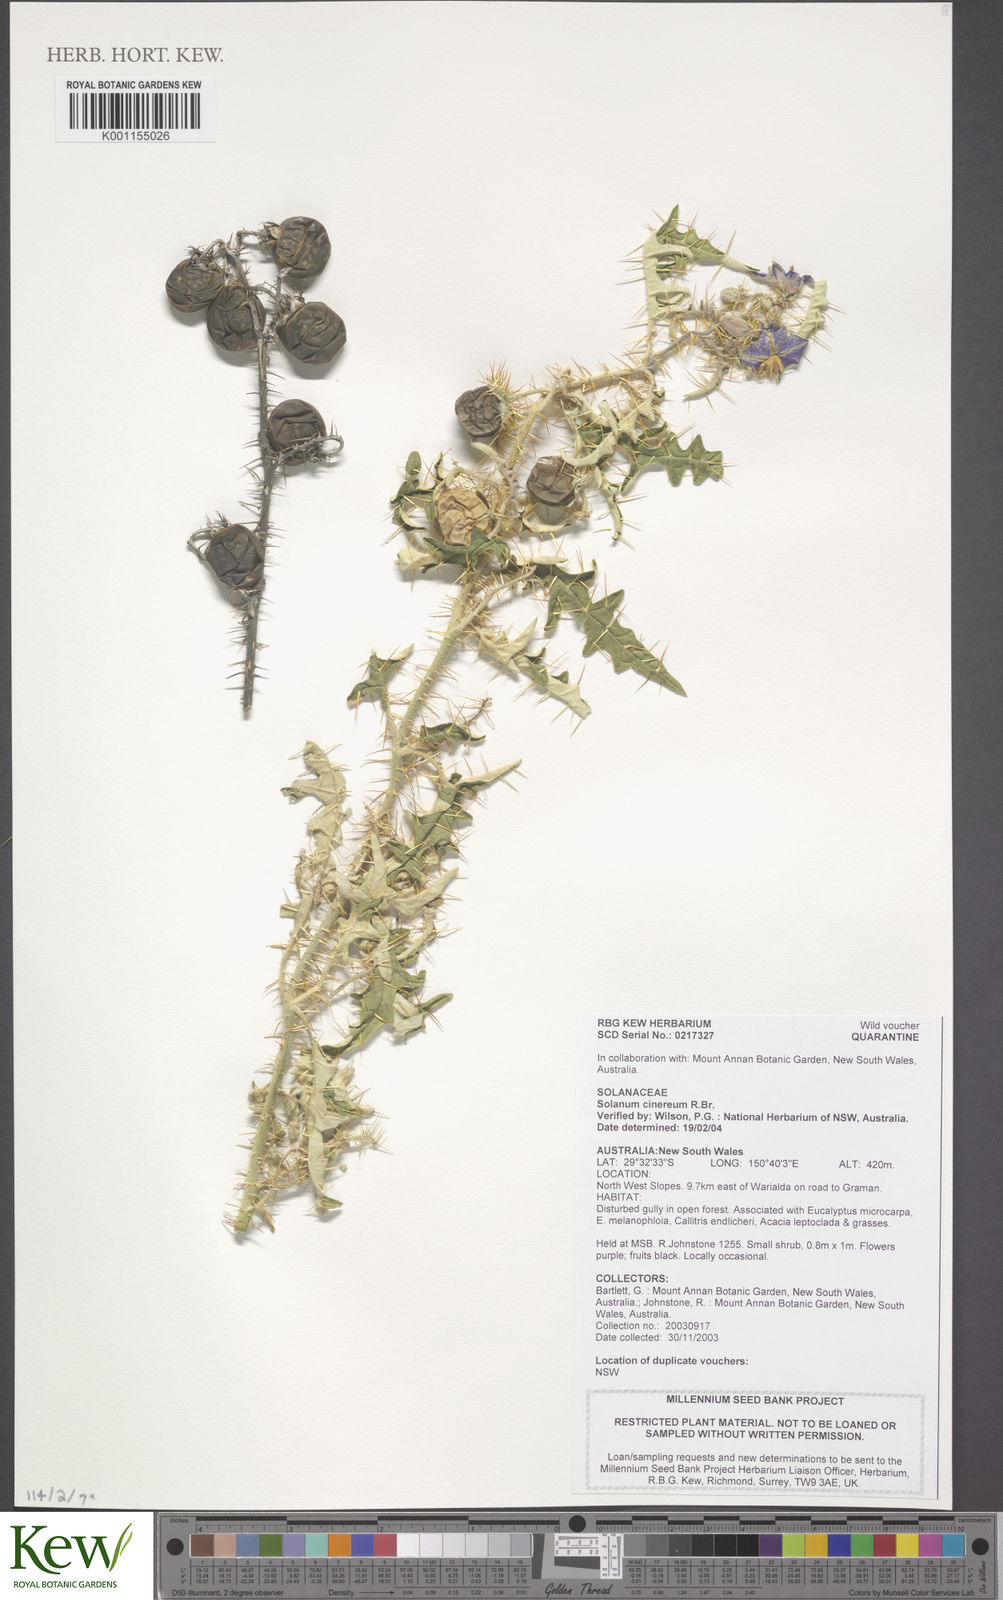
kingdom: Plantae
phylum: Tracheophyta
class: Magnoliopsida
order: Solanales
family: Solanaceae
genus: Solanum
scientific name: Solanum cinereum
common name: Narrawa-bur
